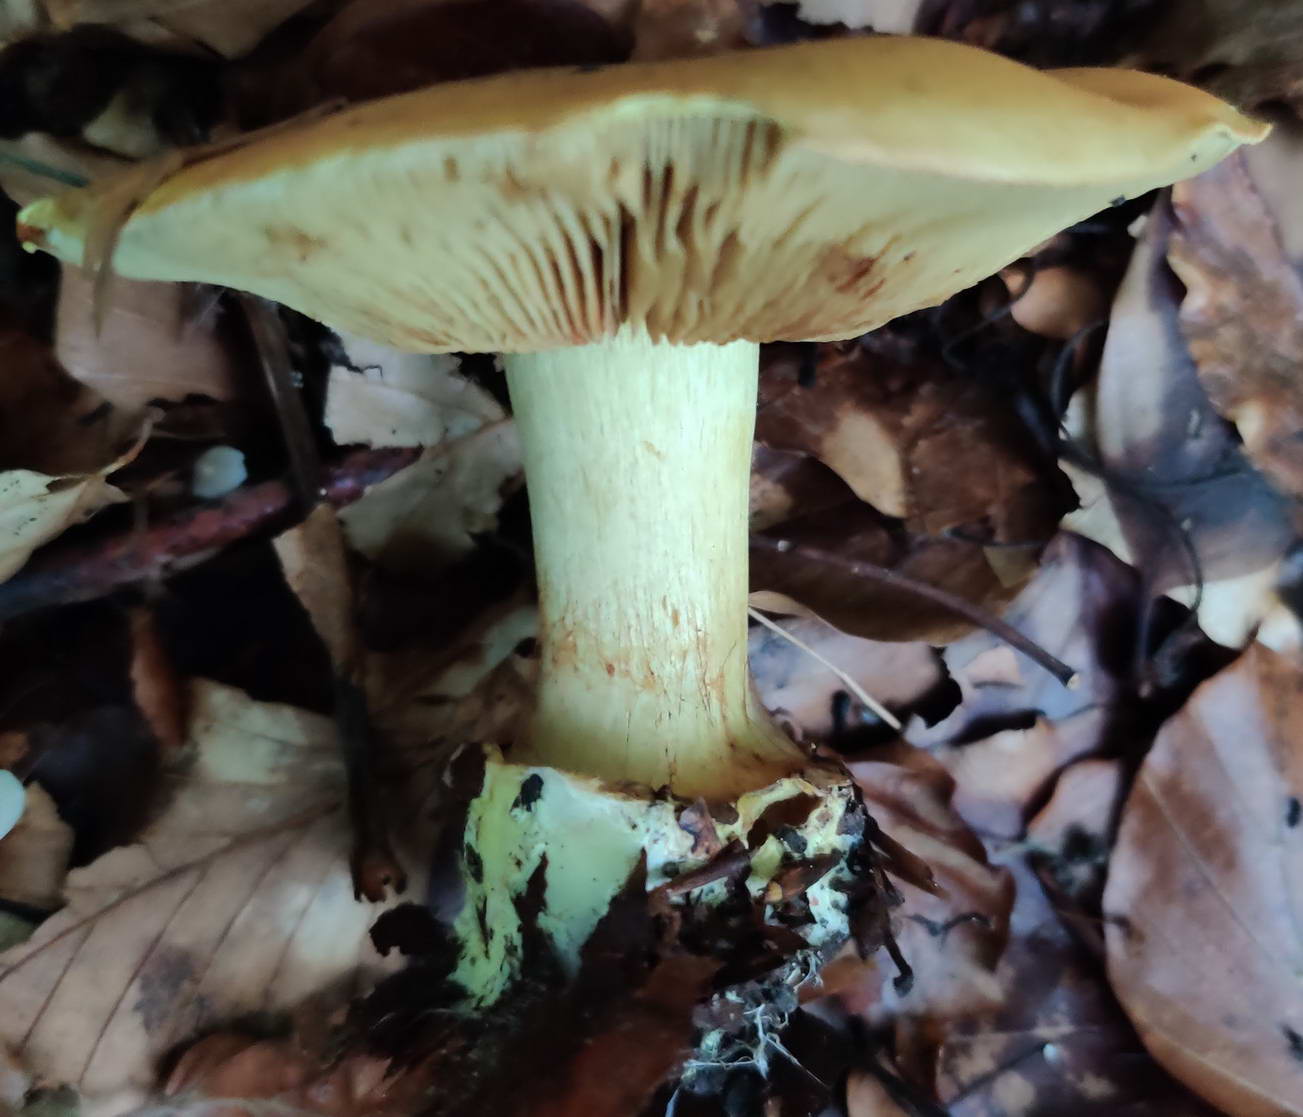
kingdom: Fungi
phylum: Basidiomycota
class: Agaricomycetes
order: Agaricales
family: Cortinariaceae
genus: Calonarius
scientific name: Calonarius citrinus
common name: citrongul slørhat
